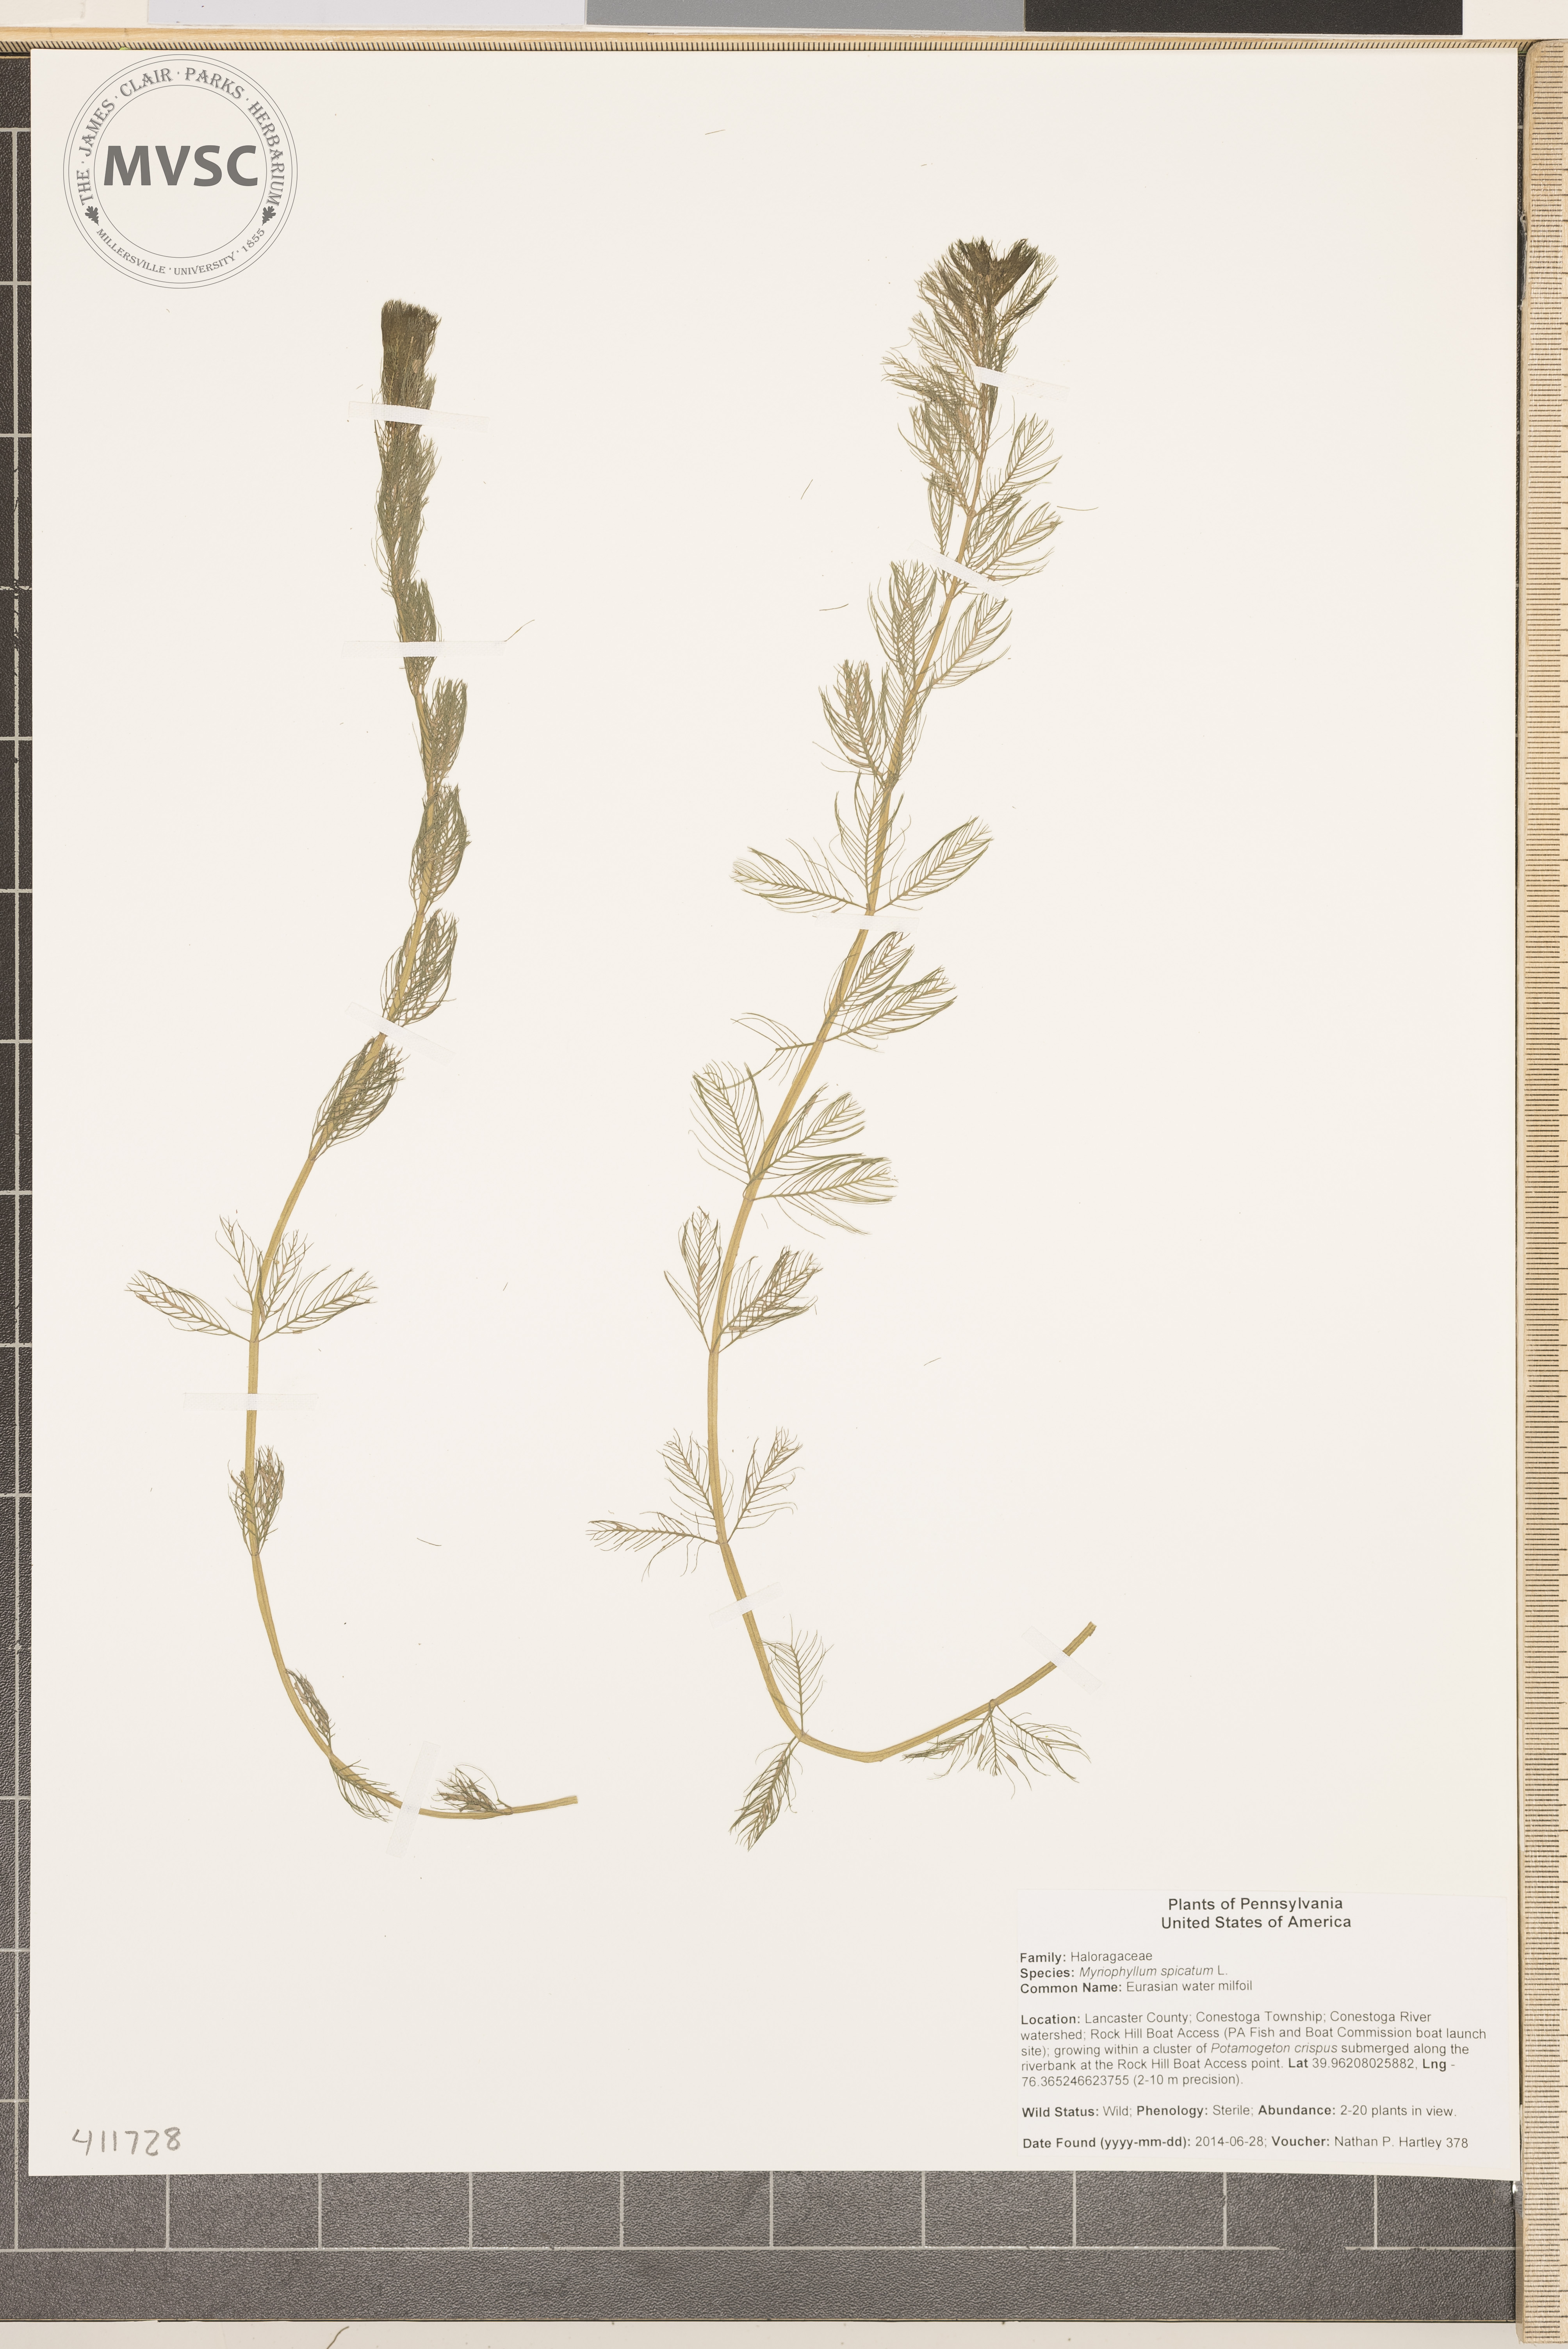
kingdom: Plantae
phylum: Tracheophyta
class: Magnoliopsida
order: Saxifragales
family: Haloragaceae
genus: Myriophyllum
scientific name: Myriophyllum spicatum
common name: Eurasian water milfoil
